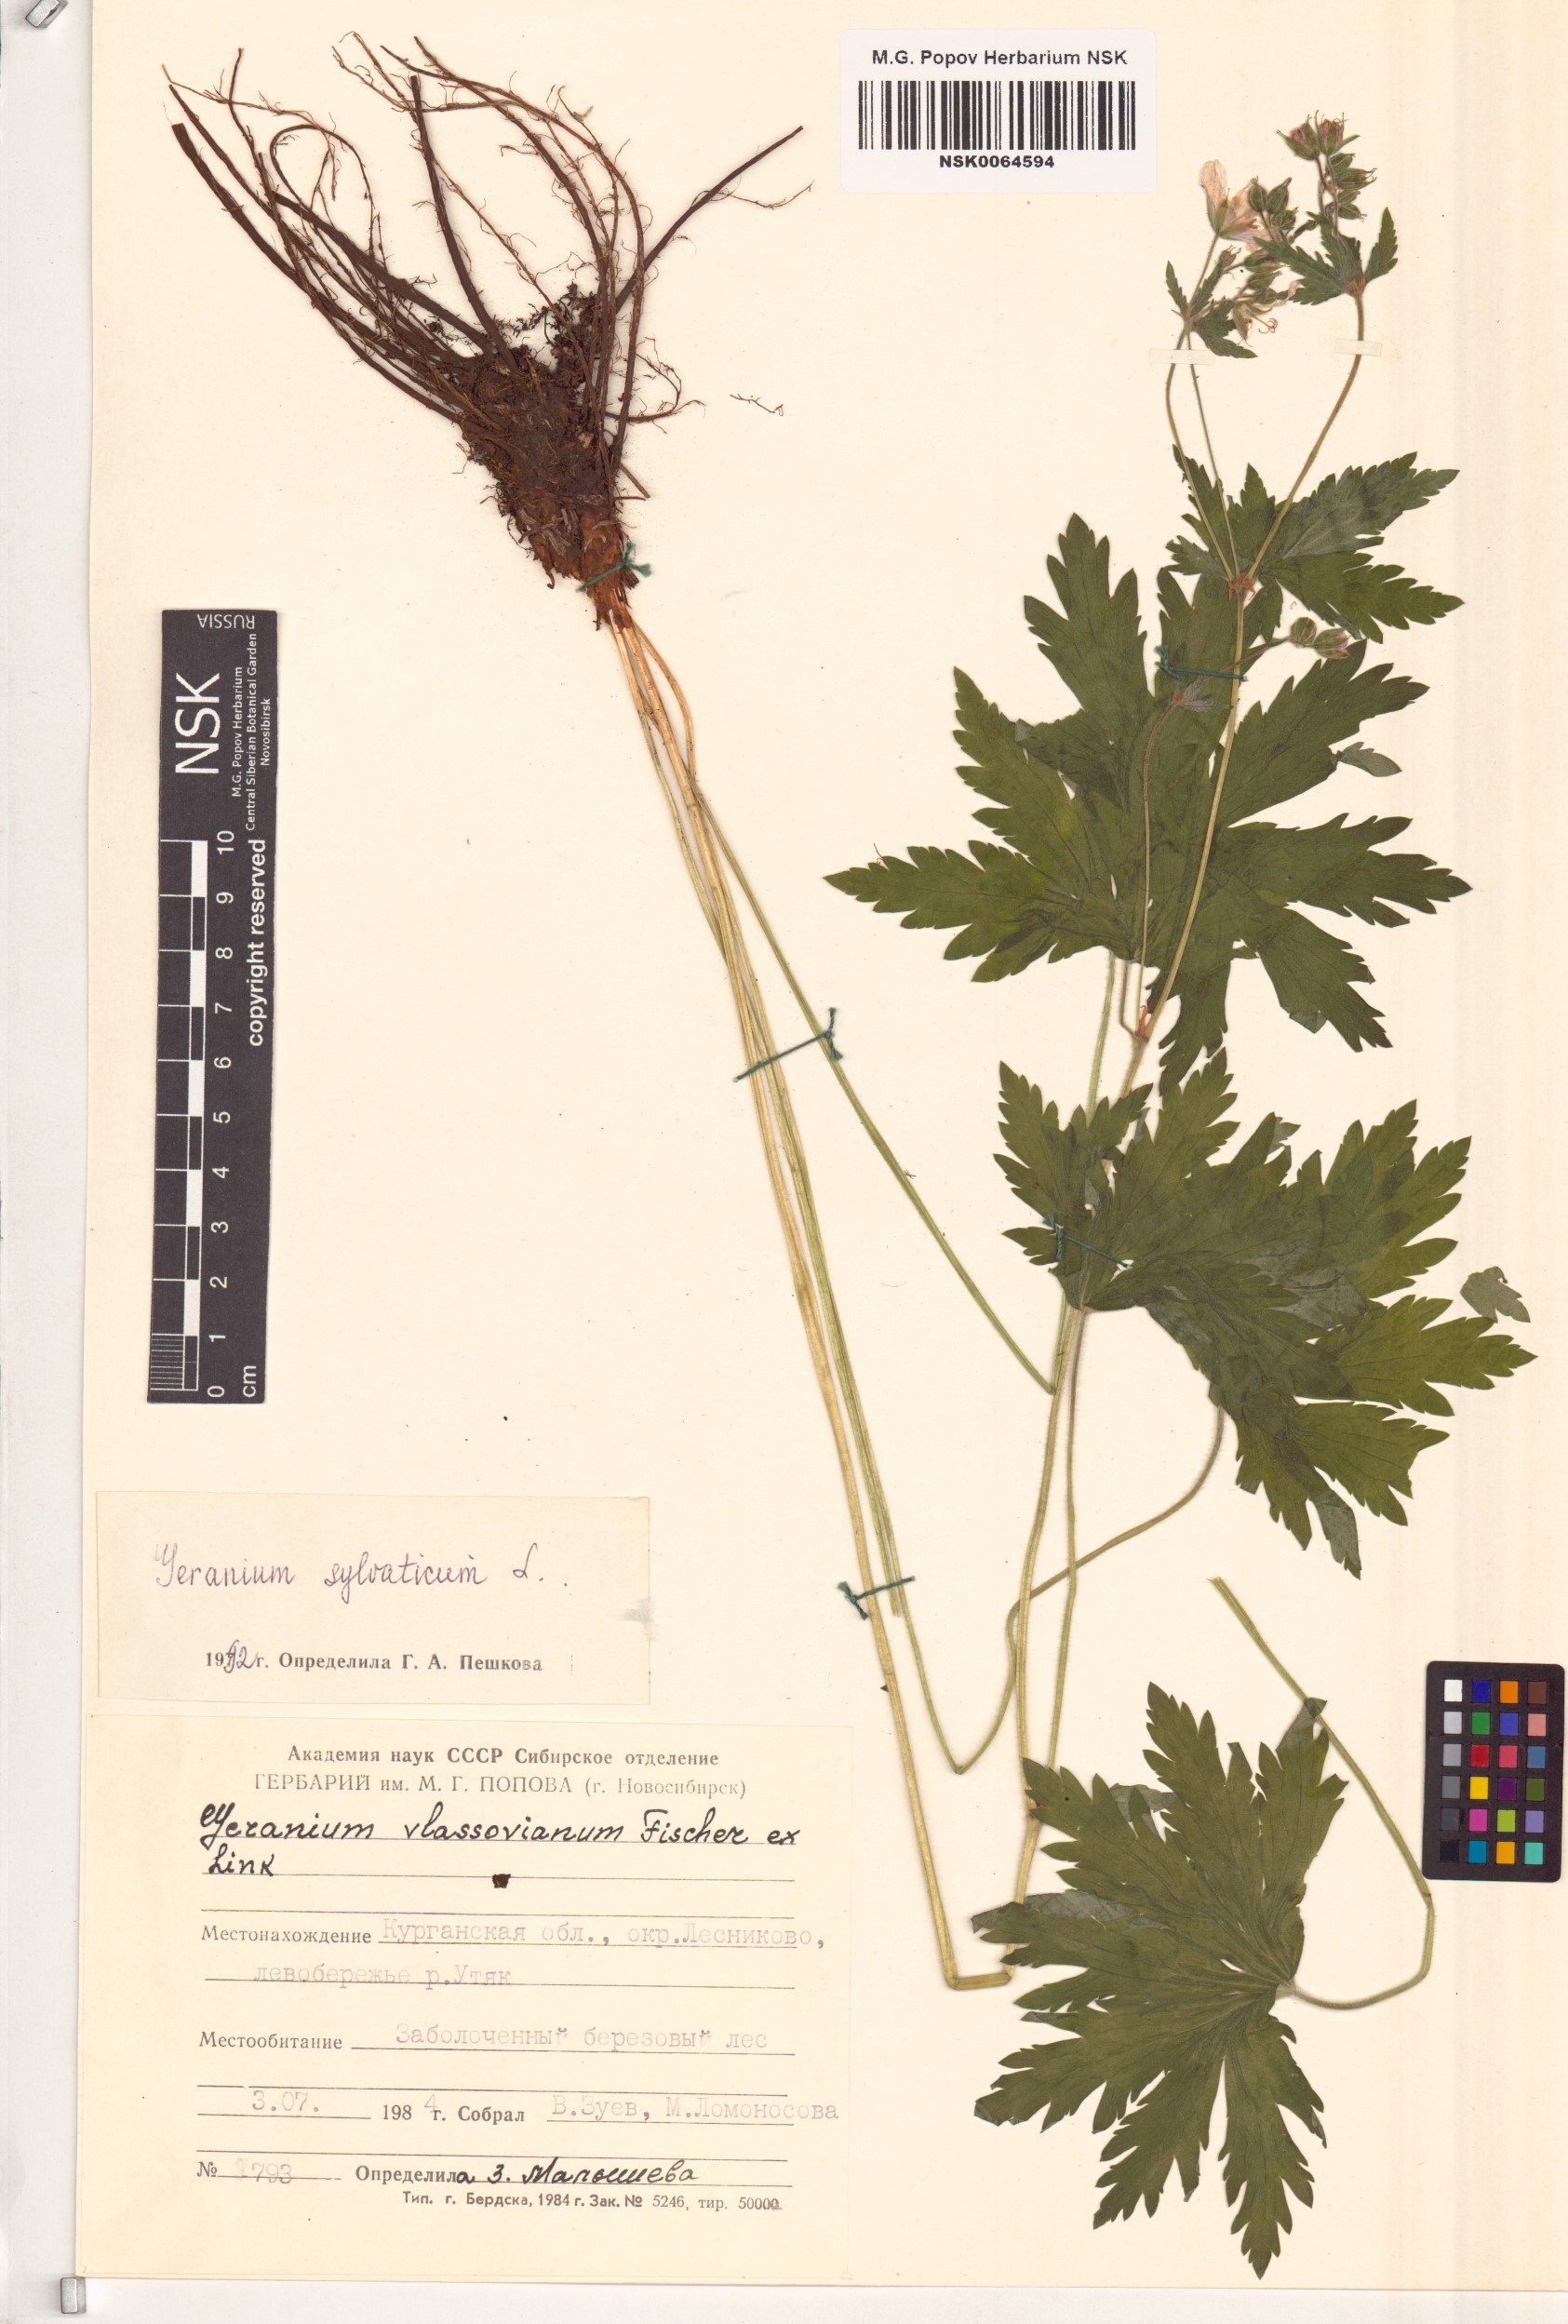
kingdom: Plantae
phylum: Tracheophyta
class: Magnoliopsida
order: Geraniales
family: Geraniaceae
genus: Geranium
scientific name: Geranium sylvaticum
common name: Wood crane's-bill
